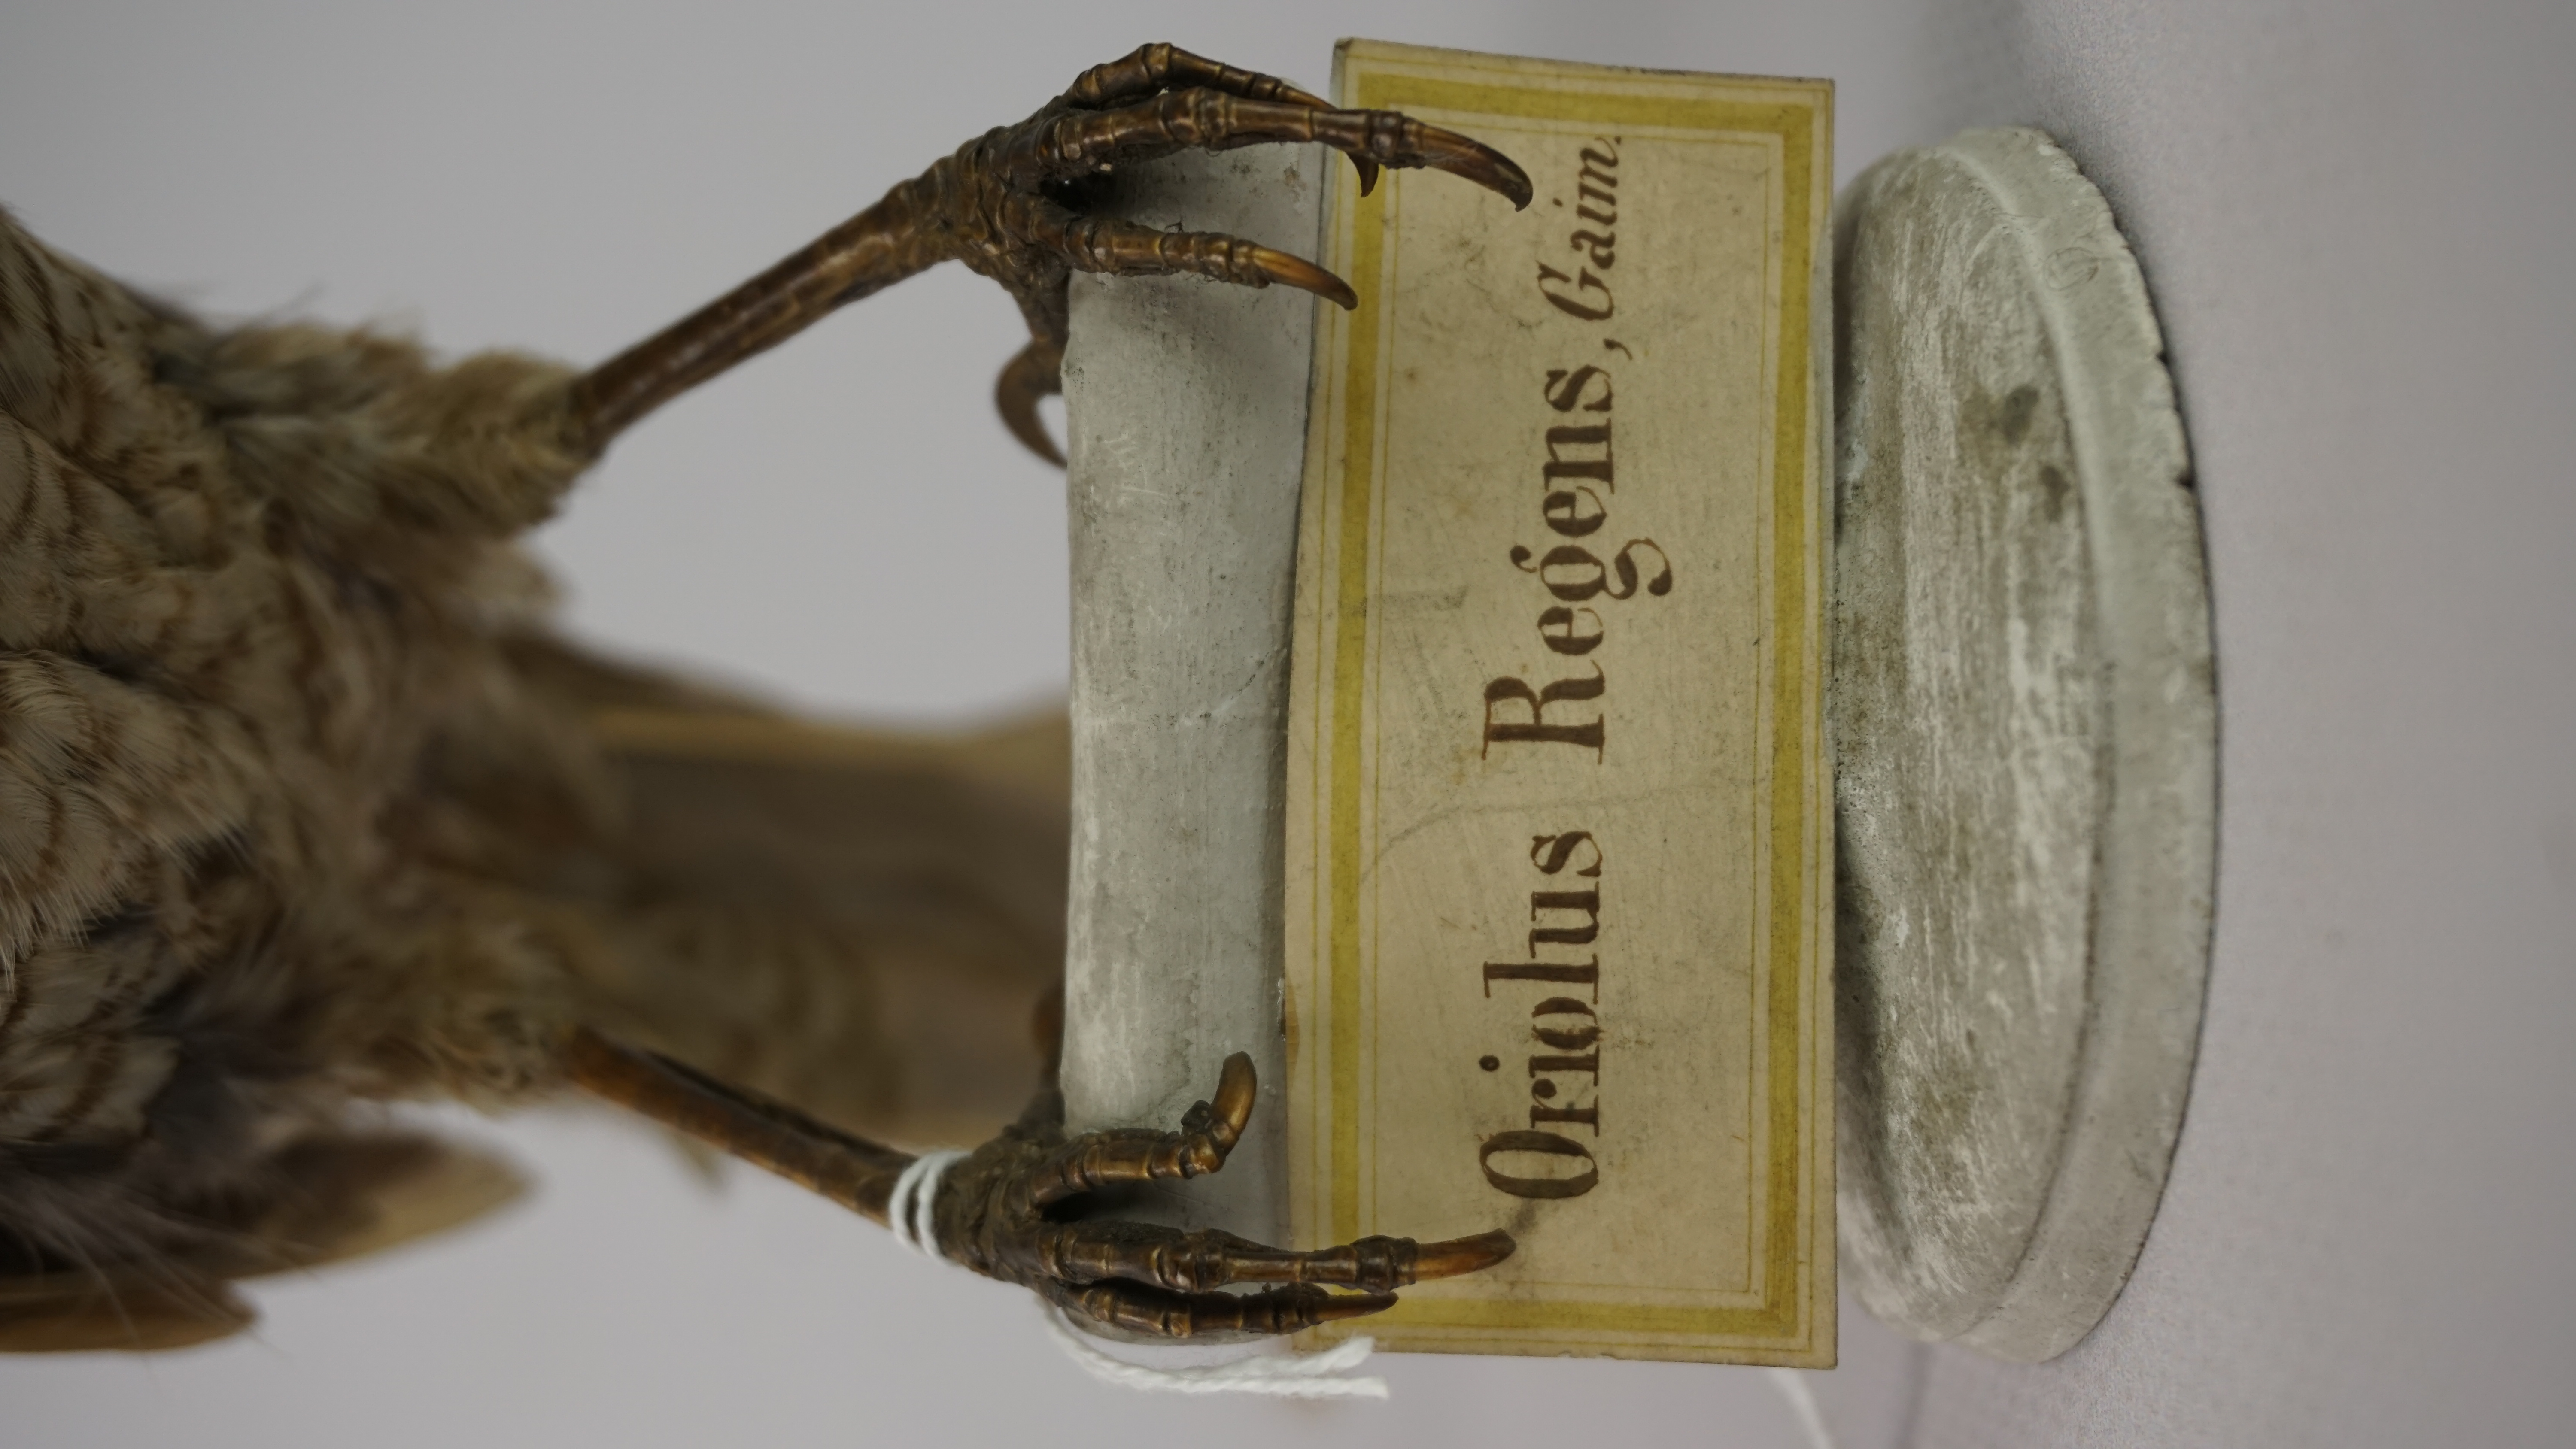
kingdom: Animalia
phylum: Chordata
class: Aves
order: Passeriformes
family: Ptilonorhynchidae
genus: Sericulus
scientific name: Sericulus chrysocephalus
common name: Regent bowerbird
